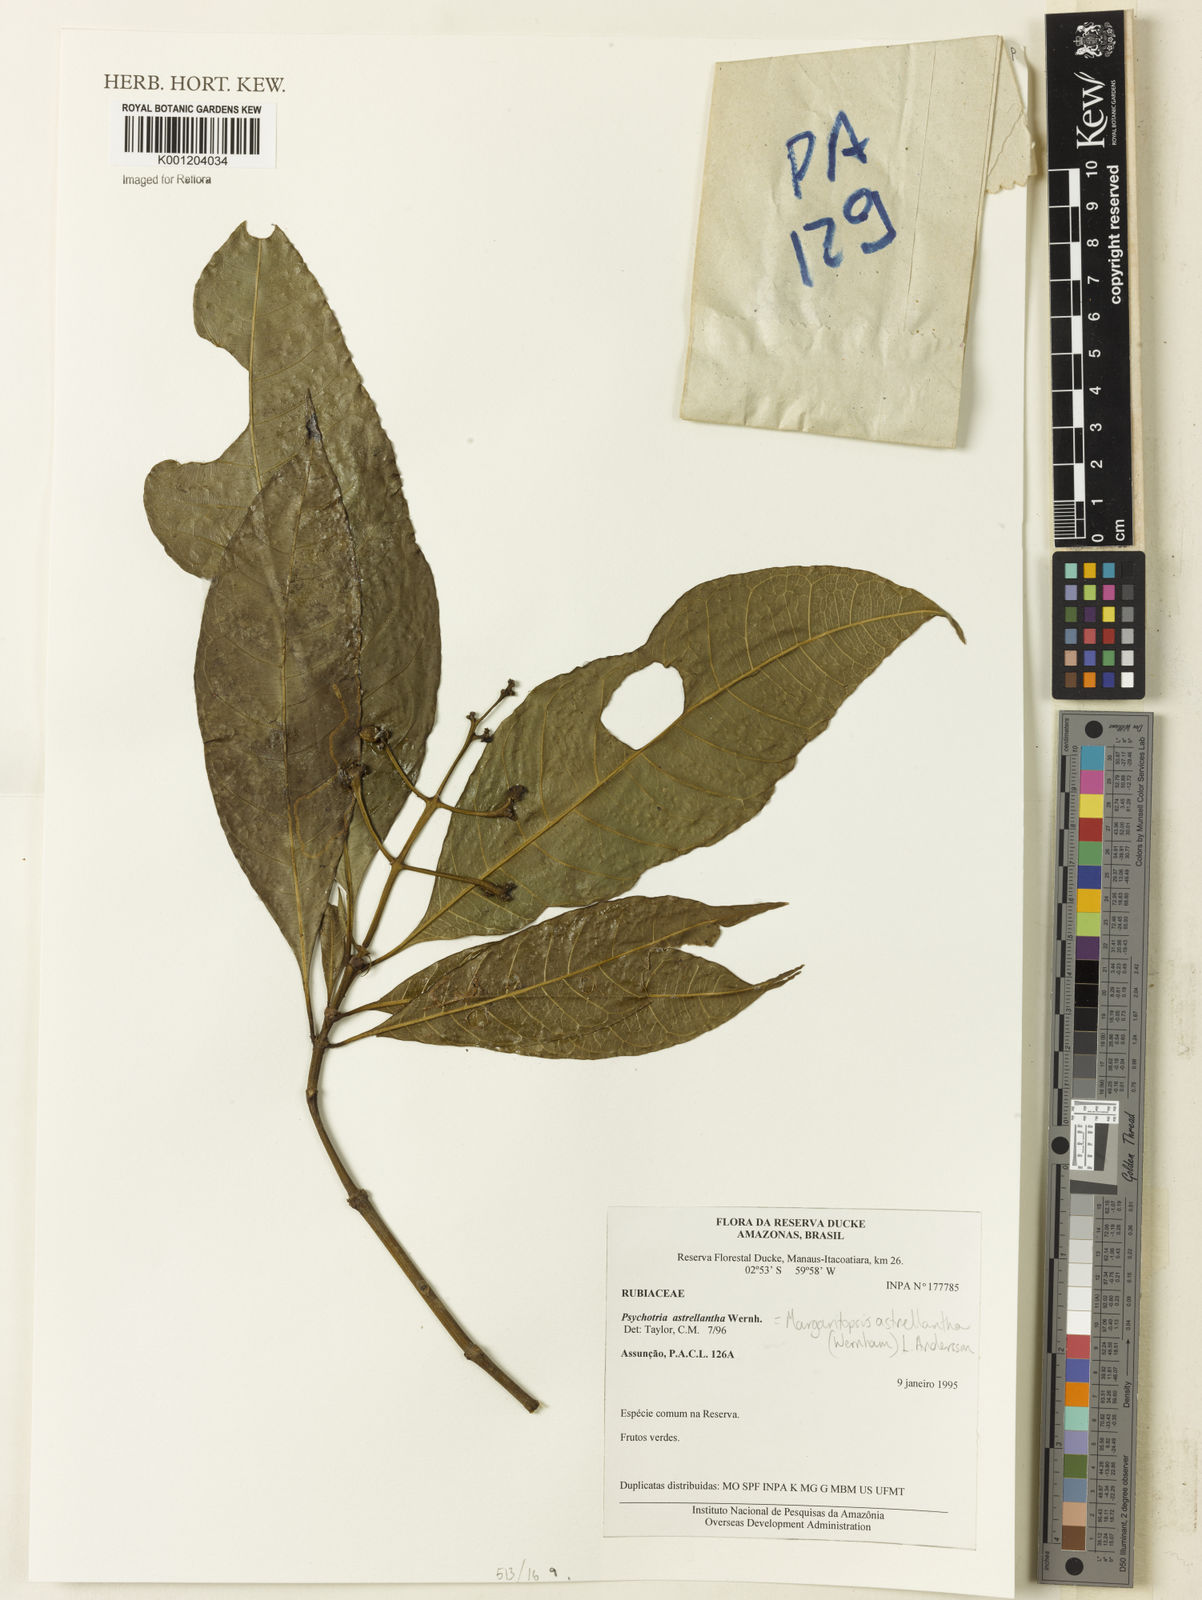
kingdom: Plantae
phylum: Tracheophyta
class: Magnoliopsida
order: Gentianales
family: Rubiaceae
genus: Eumachia
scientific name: Eumachia boliviana
